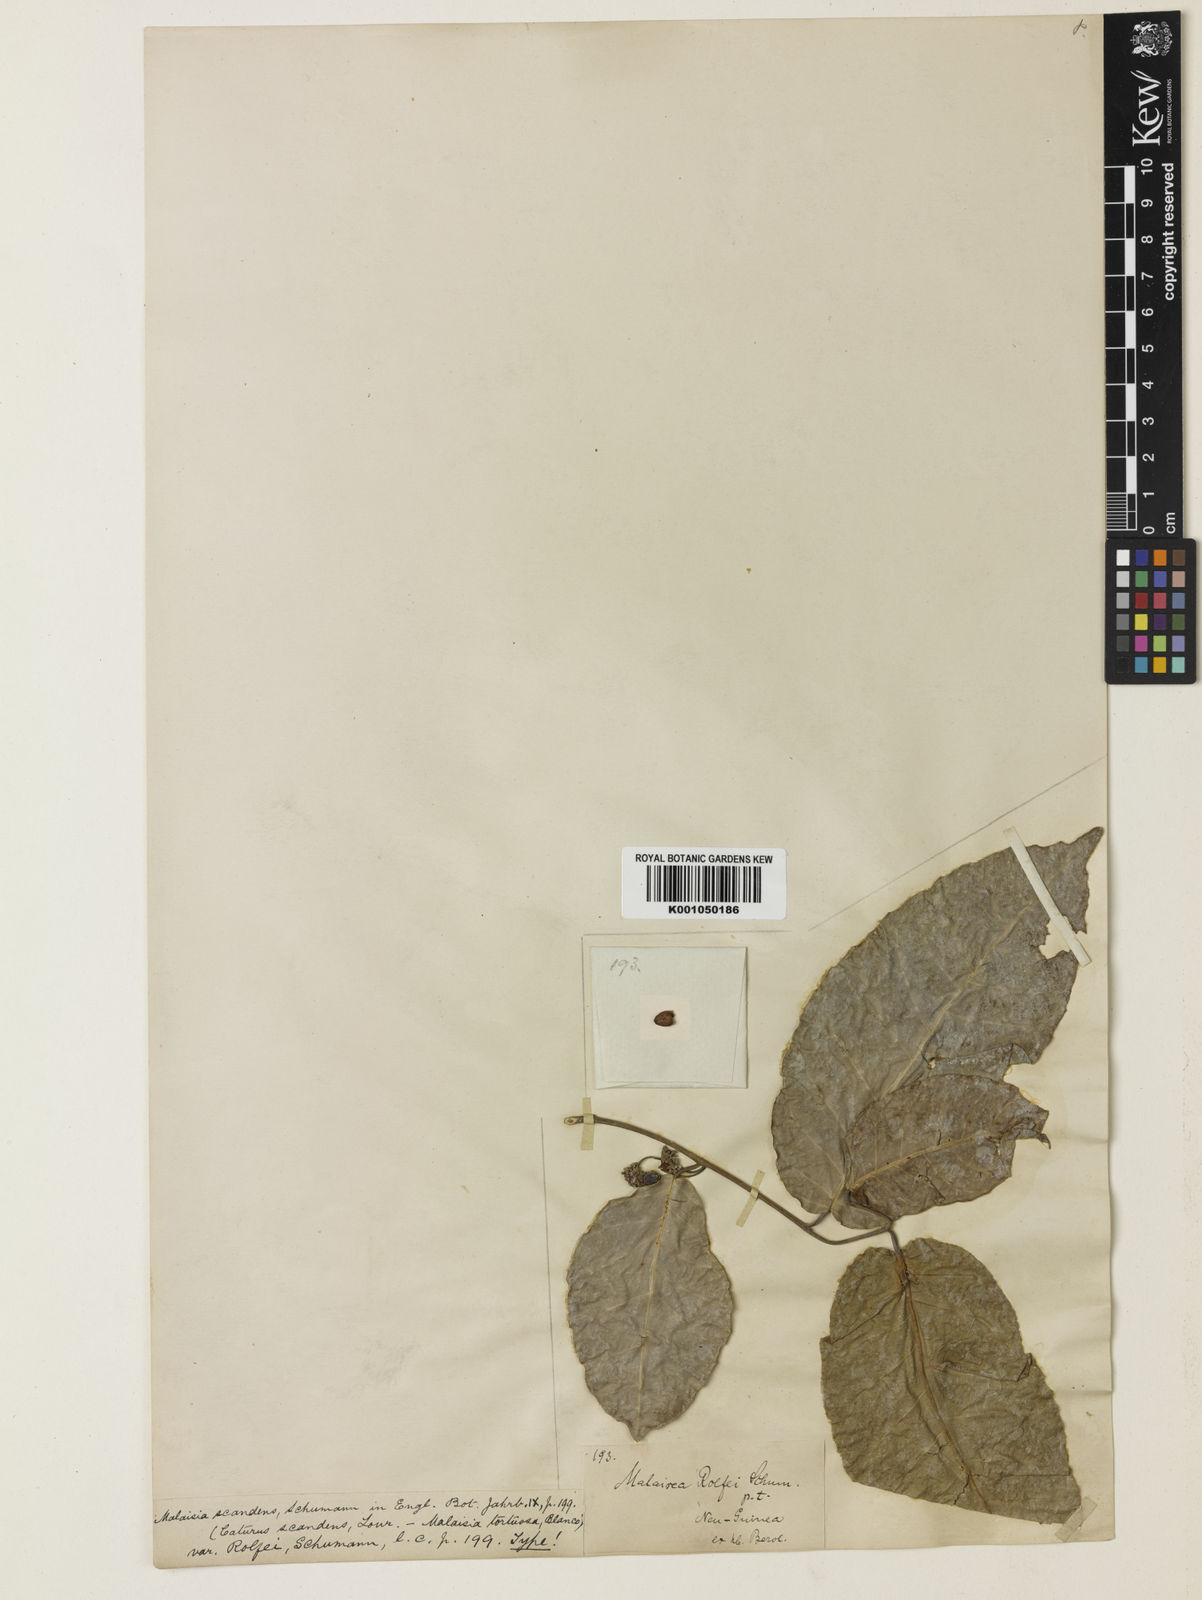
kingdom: Plantae
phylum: Tracheophyta
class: Magnoliopsida
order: Rosales
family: Moraceae
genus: Malaisia
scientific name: Malaisia scandens
